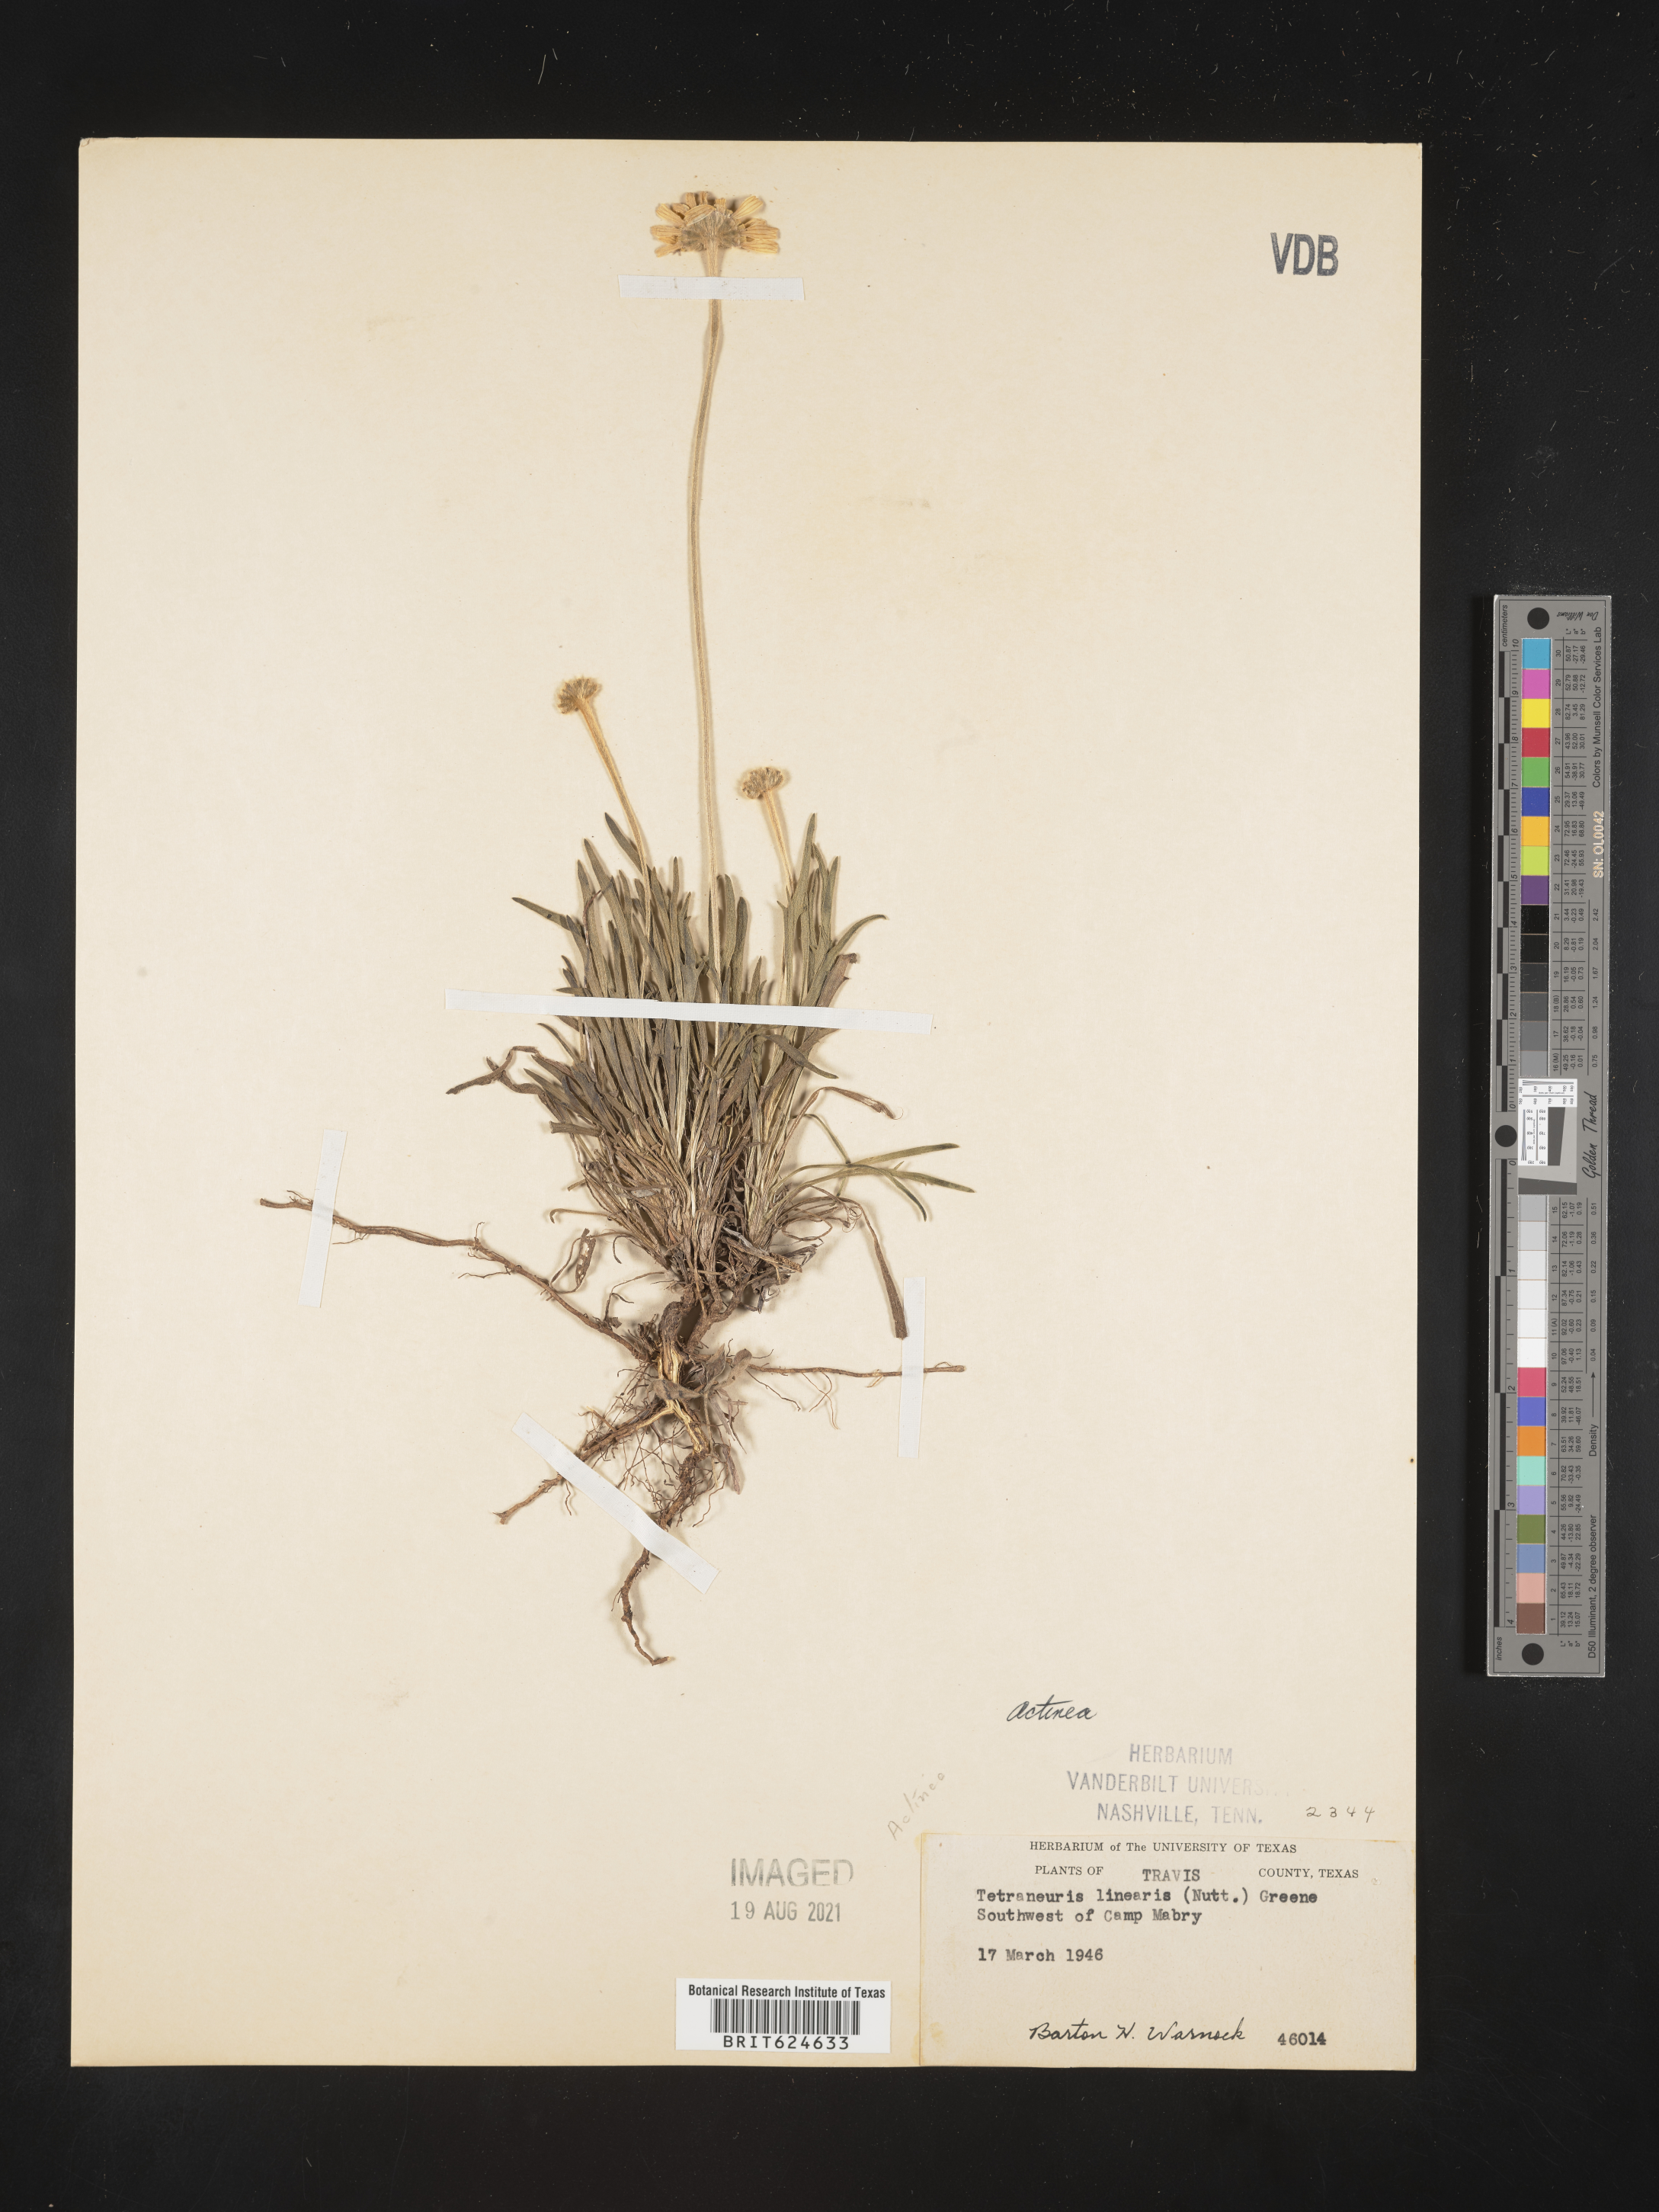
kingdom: Plantae
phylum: Tracheophyta
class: Magnoliopsida
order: Asterales
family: Asteraceae
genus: Helenium
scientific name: Helenium
